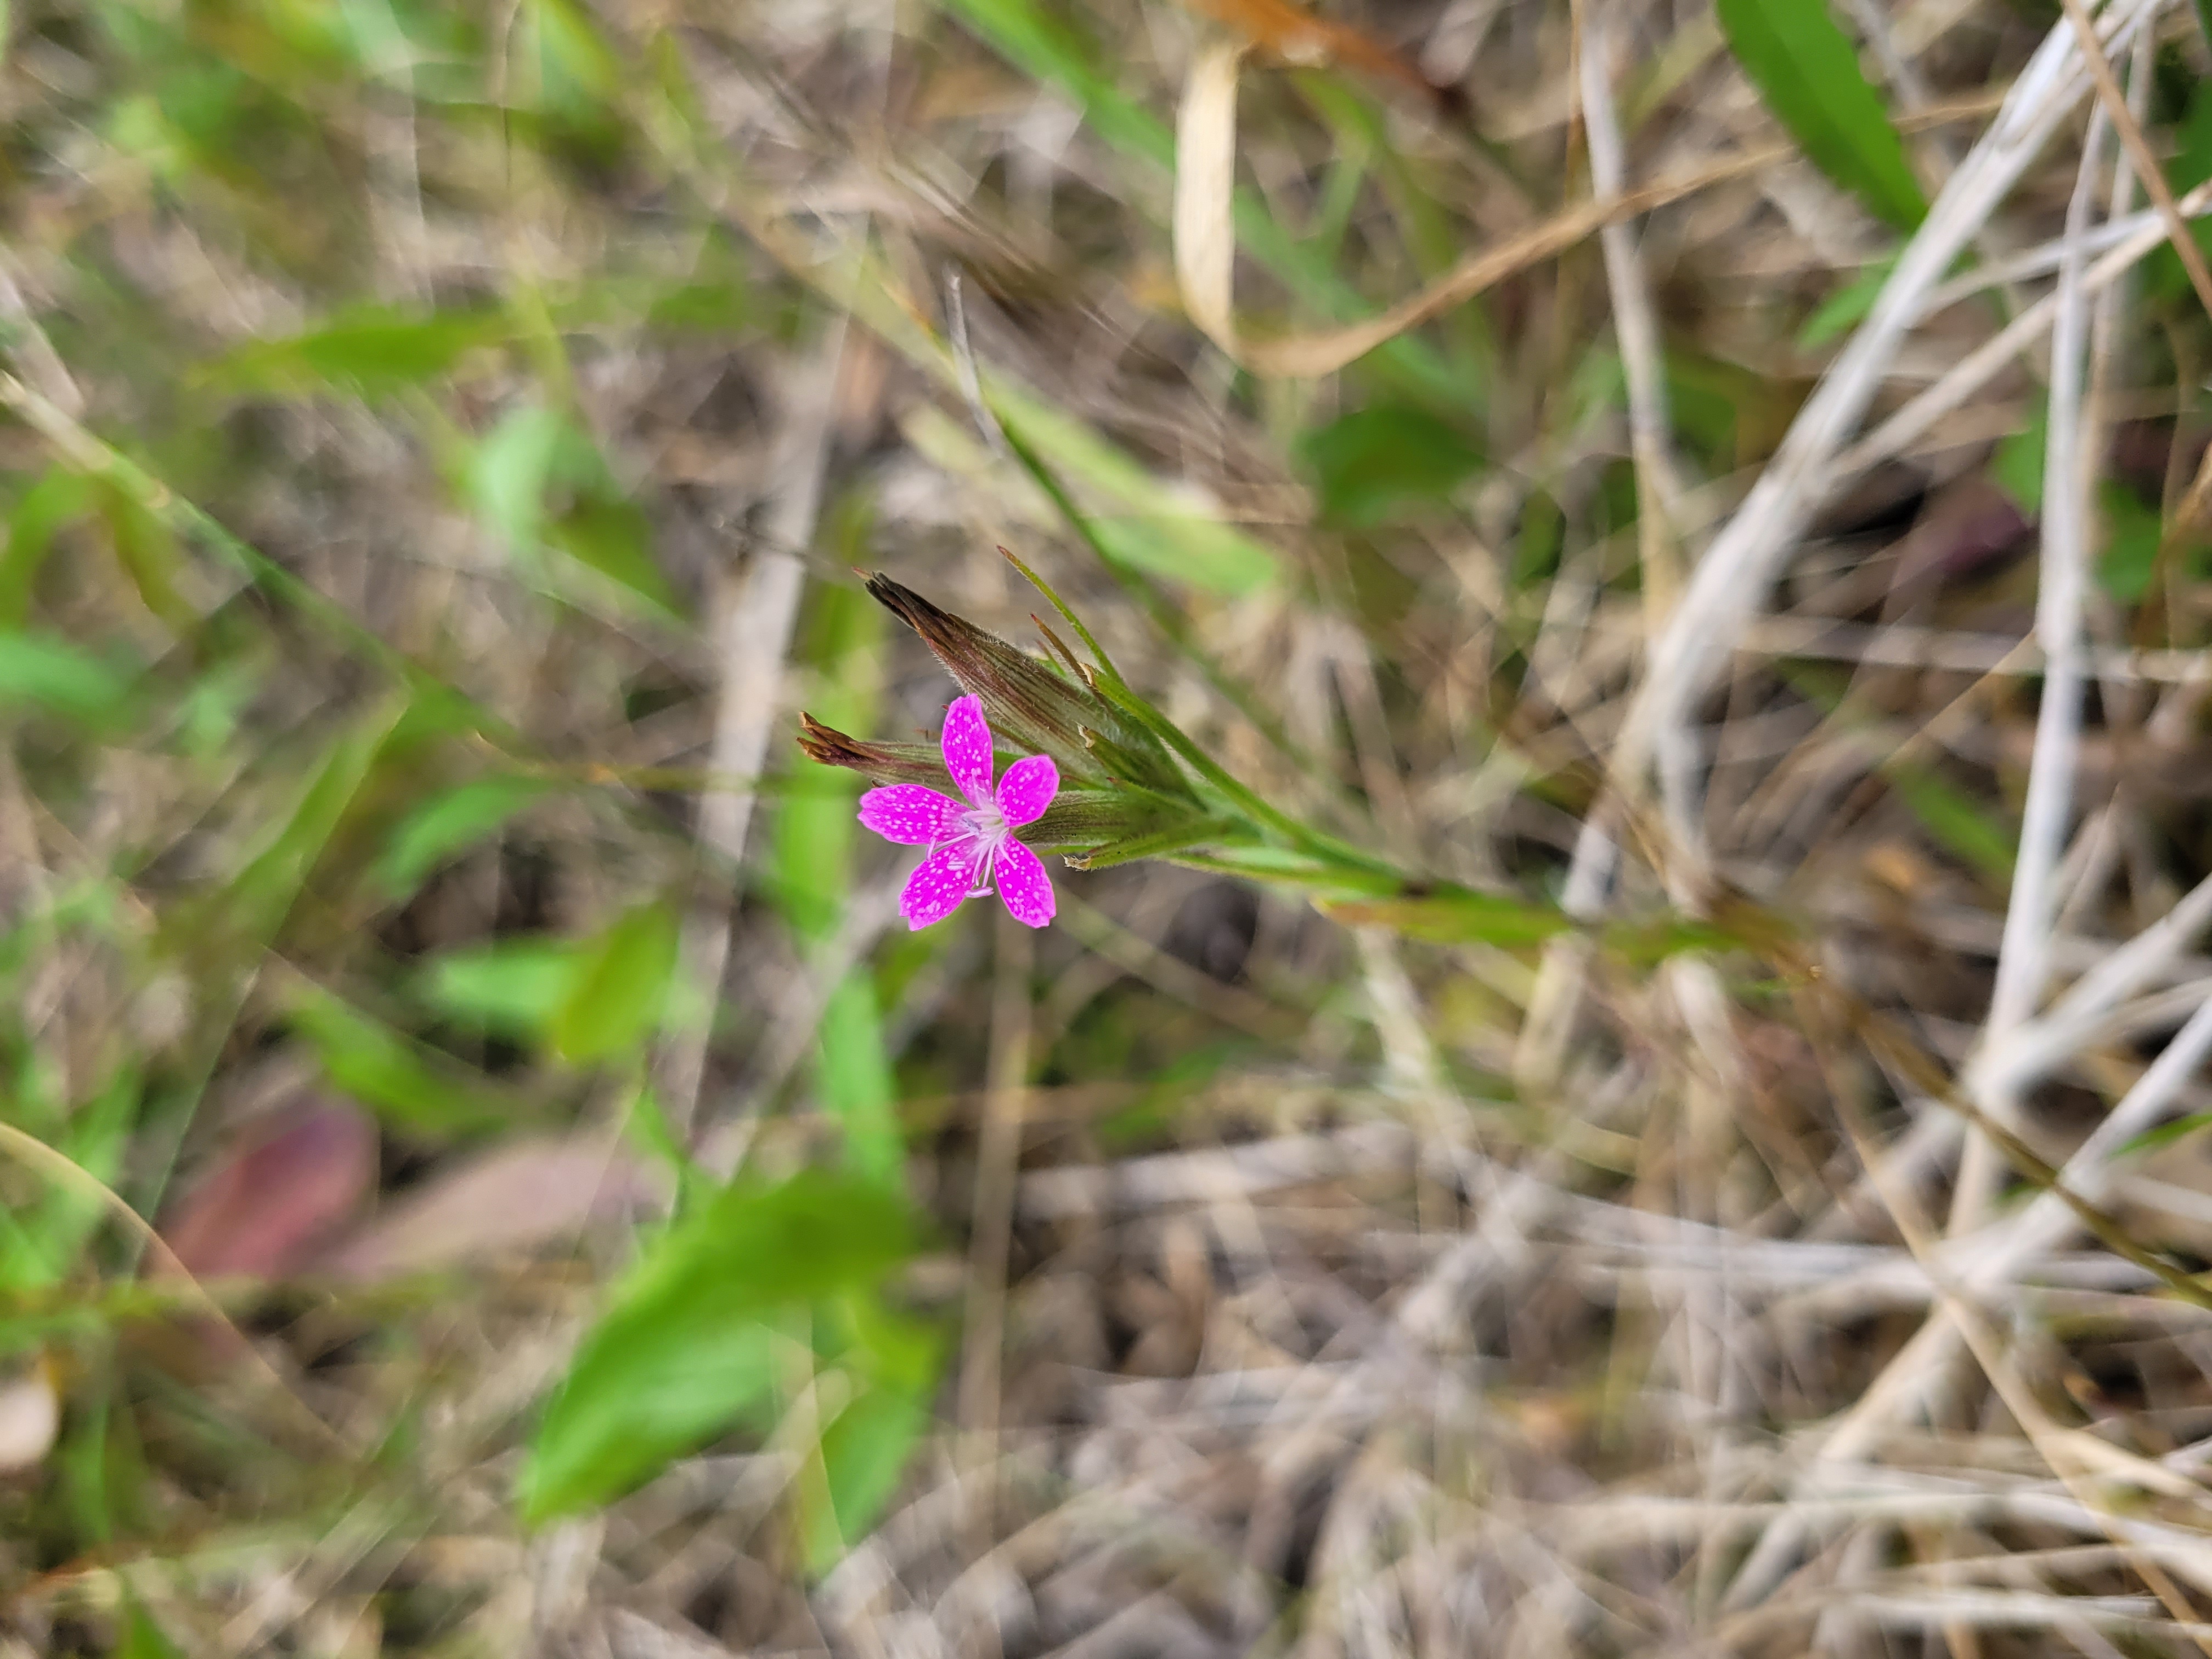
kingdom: Plantae
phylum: Tracheophyta
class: Magnoliopsida
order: Caryophyllales
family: Caryophyllaceae
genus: Dianthus
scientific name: Dianthus armeria
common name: Kost-nellike
